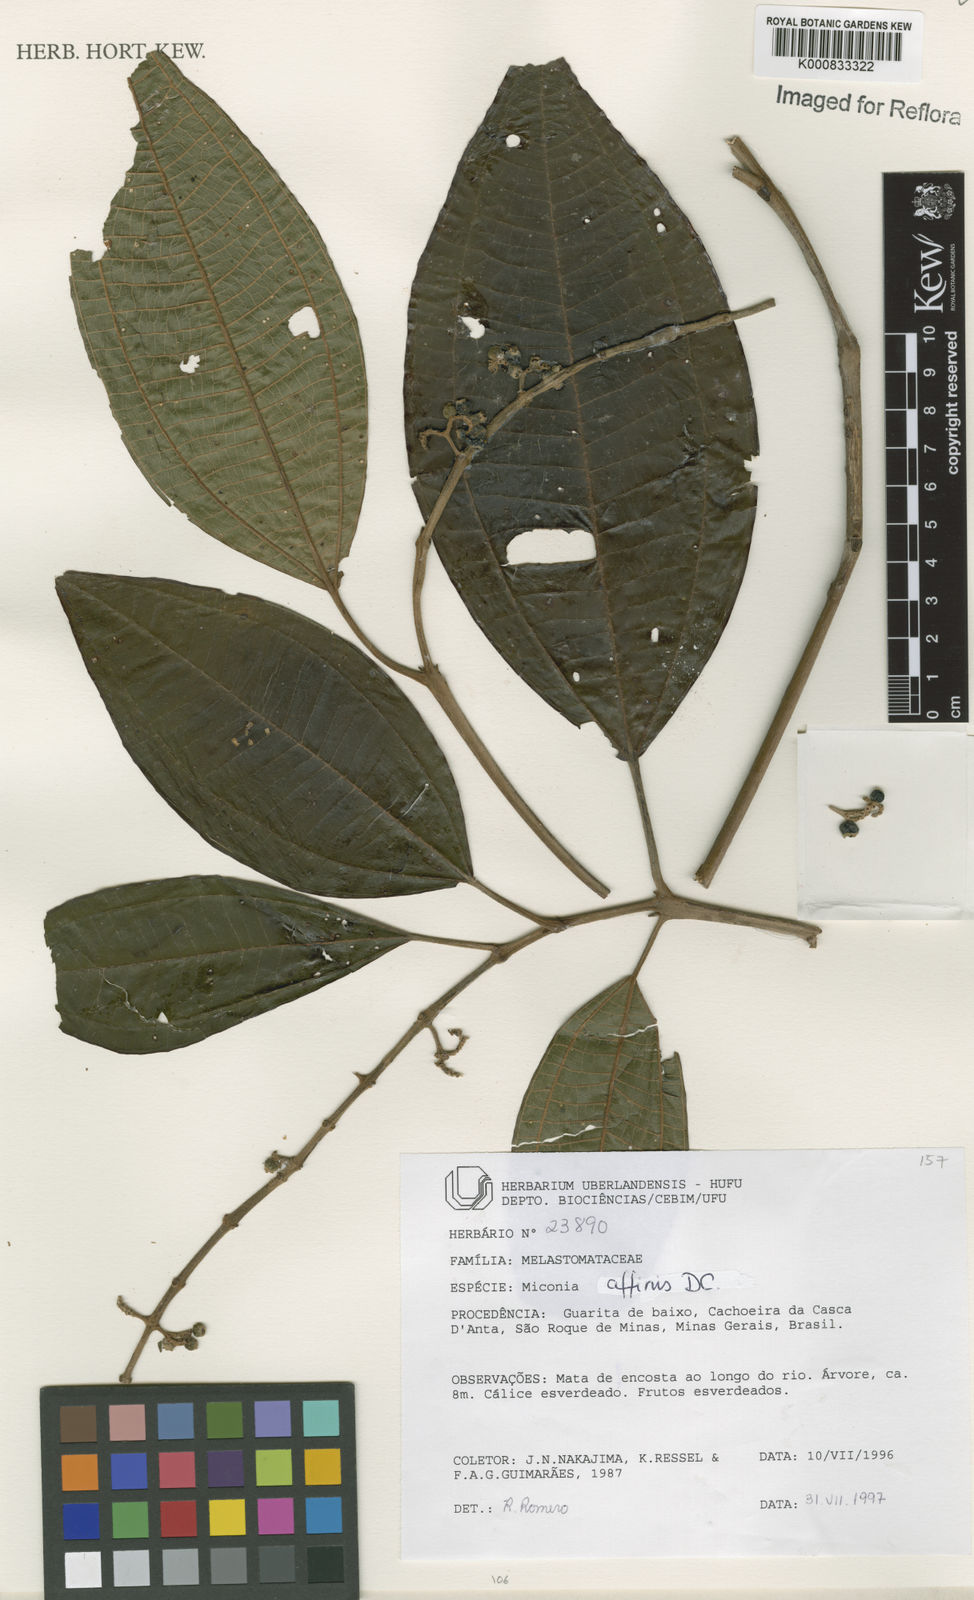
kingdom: Plantae
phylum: Tracheophyta
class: Magnoliopsida
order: Myrtales
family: Melastomataceae
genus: Miconia
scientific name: Miconia affinis
